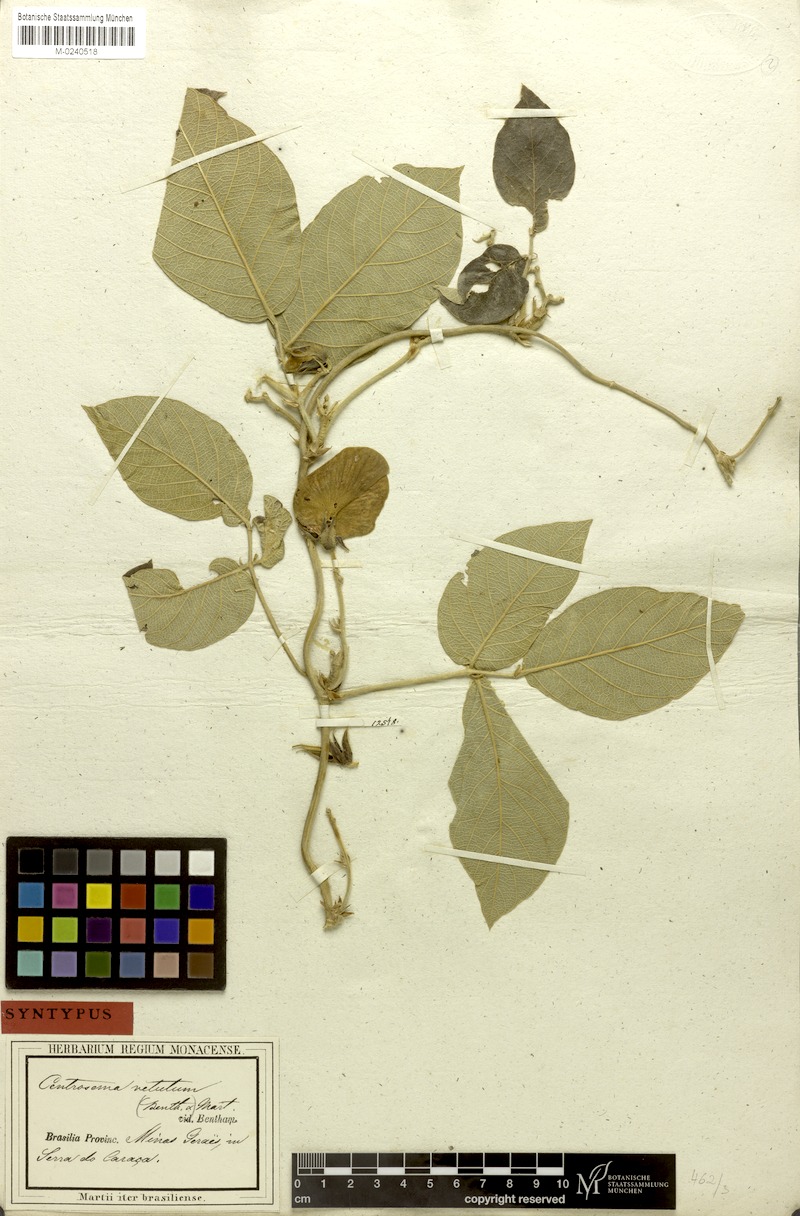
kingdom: Plantae
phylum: Tracheophyta
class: Magnoliopsida
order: Fabales
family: Fabaceae
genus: Centrosema
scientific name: Centrosema vetulum
